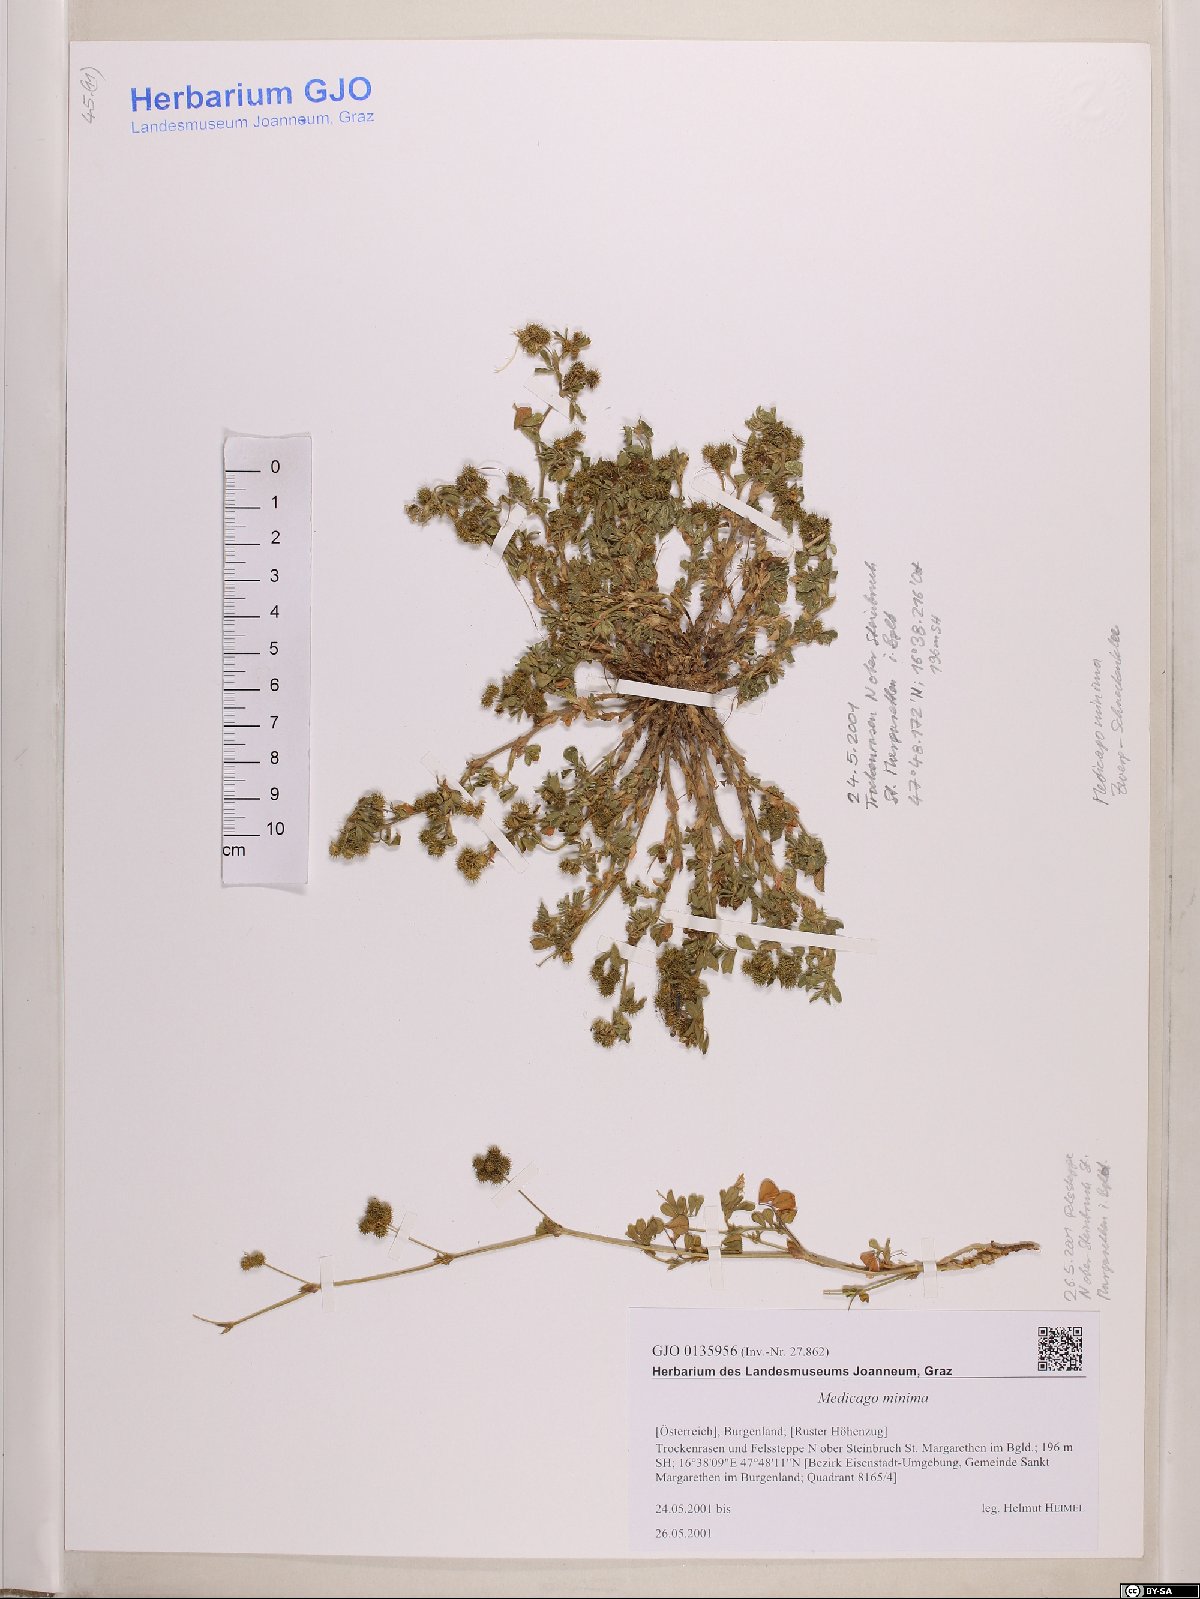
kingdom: Plantae
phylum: Tracheophyta
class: Magnoliopsida
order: Fabales
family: Fabaceae
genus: Medicago
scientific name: Medicago minima
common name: Little bur-clover
